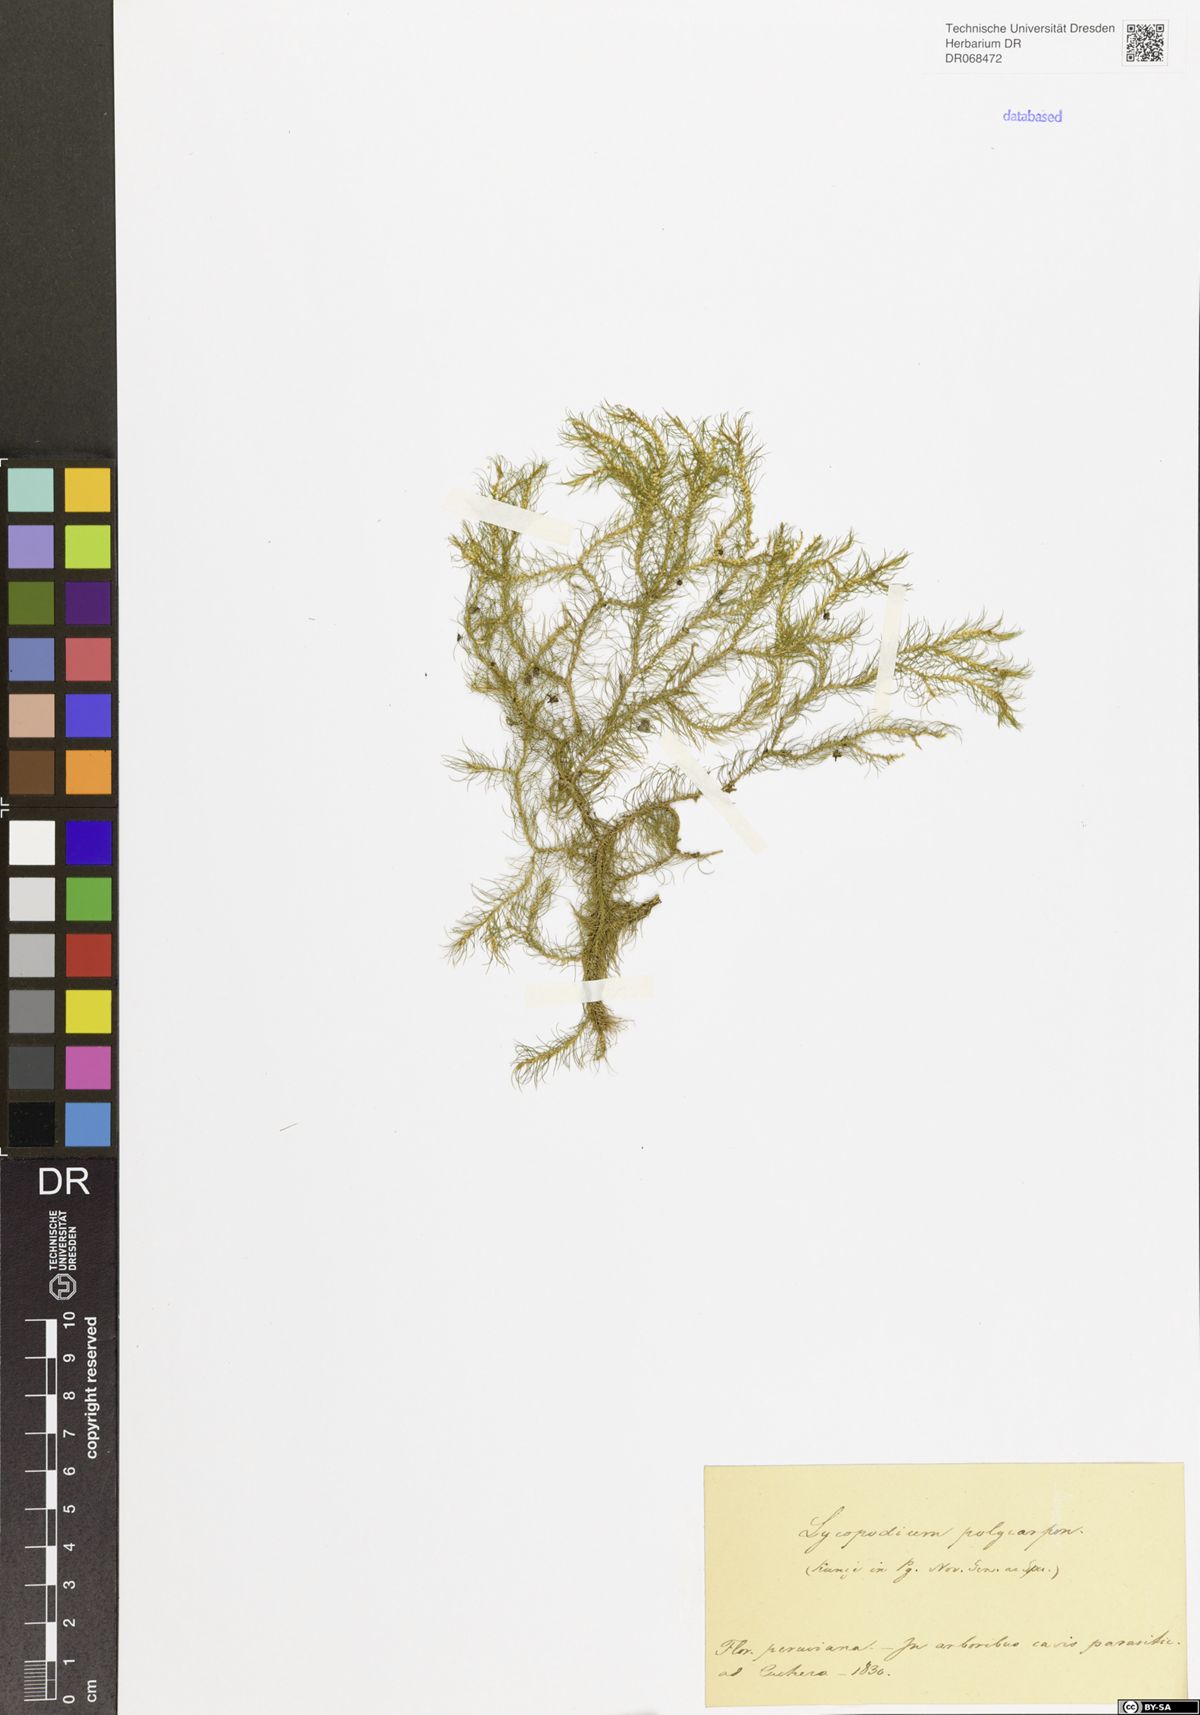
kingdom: Plantae
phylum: Tracheophyta
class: Lycopodiopsida
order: Lycopodiales
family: Lycopodiaceae
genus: Phlegmariurus
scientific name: Phlegmariurus polycarpos
